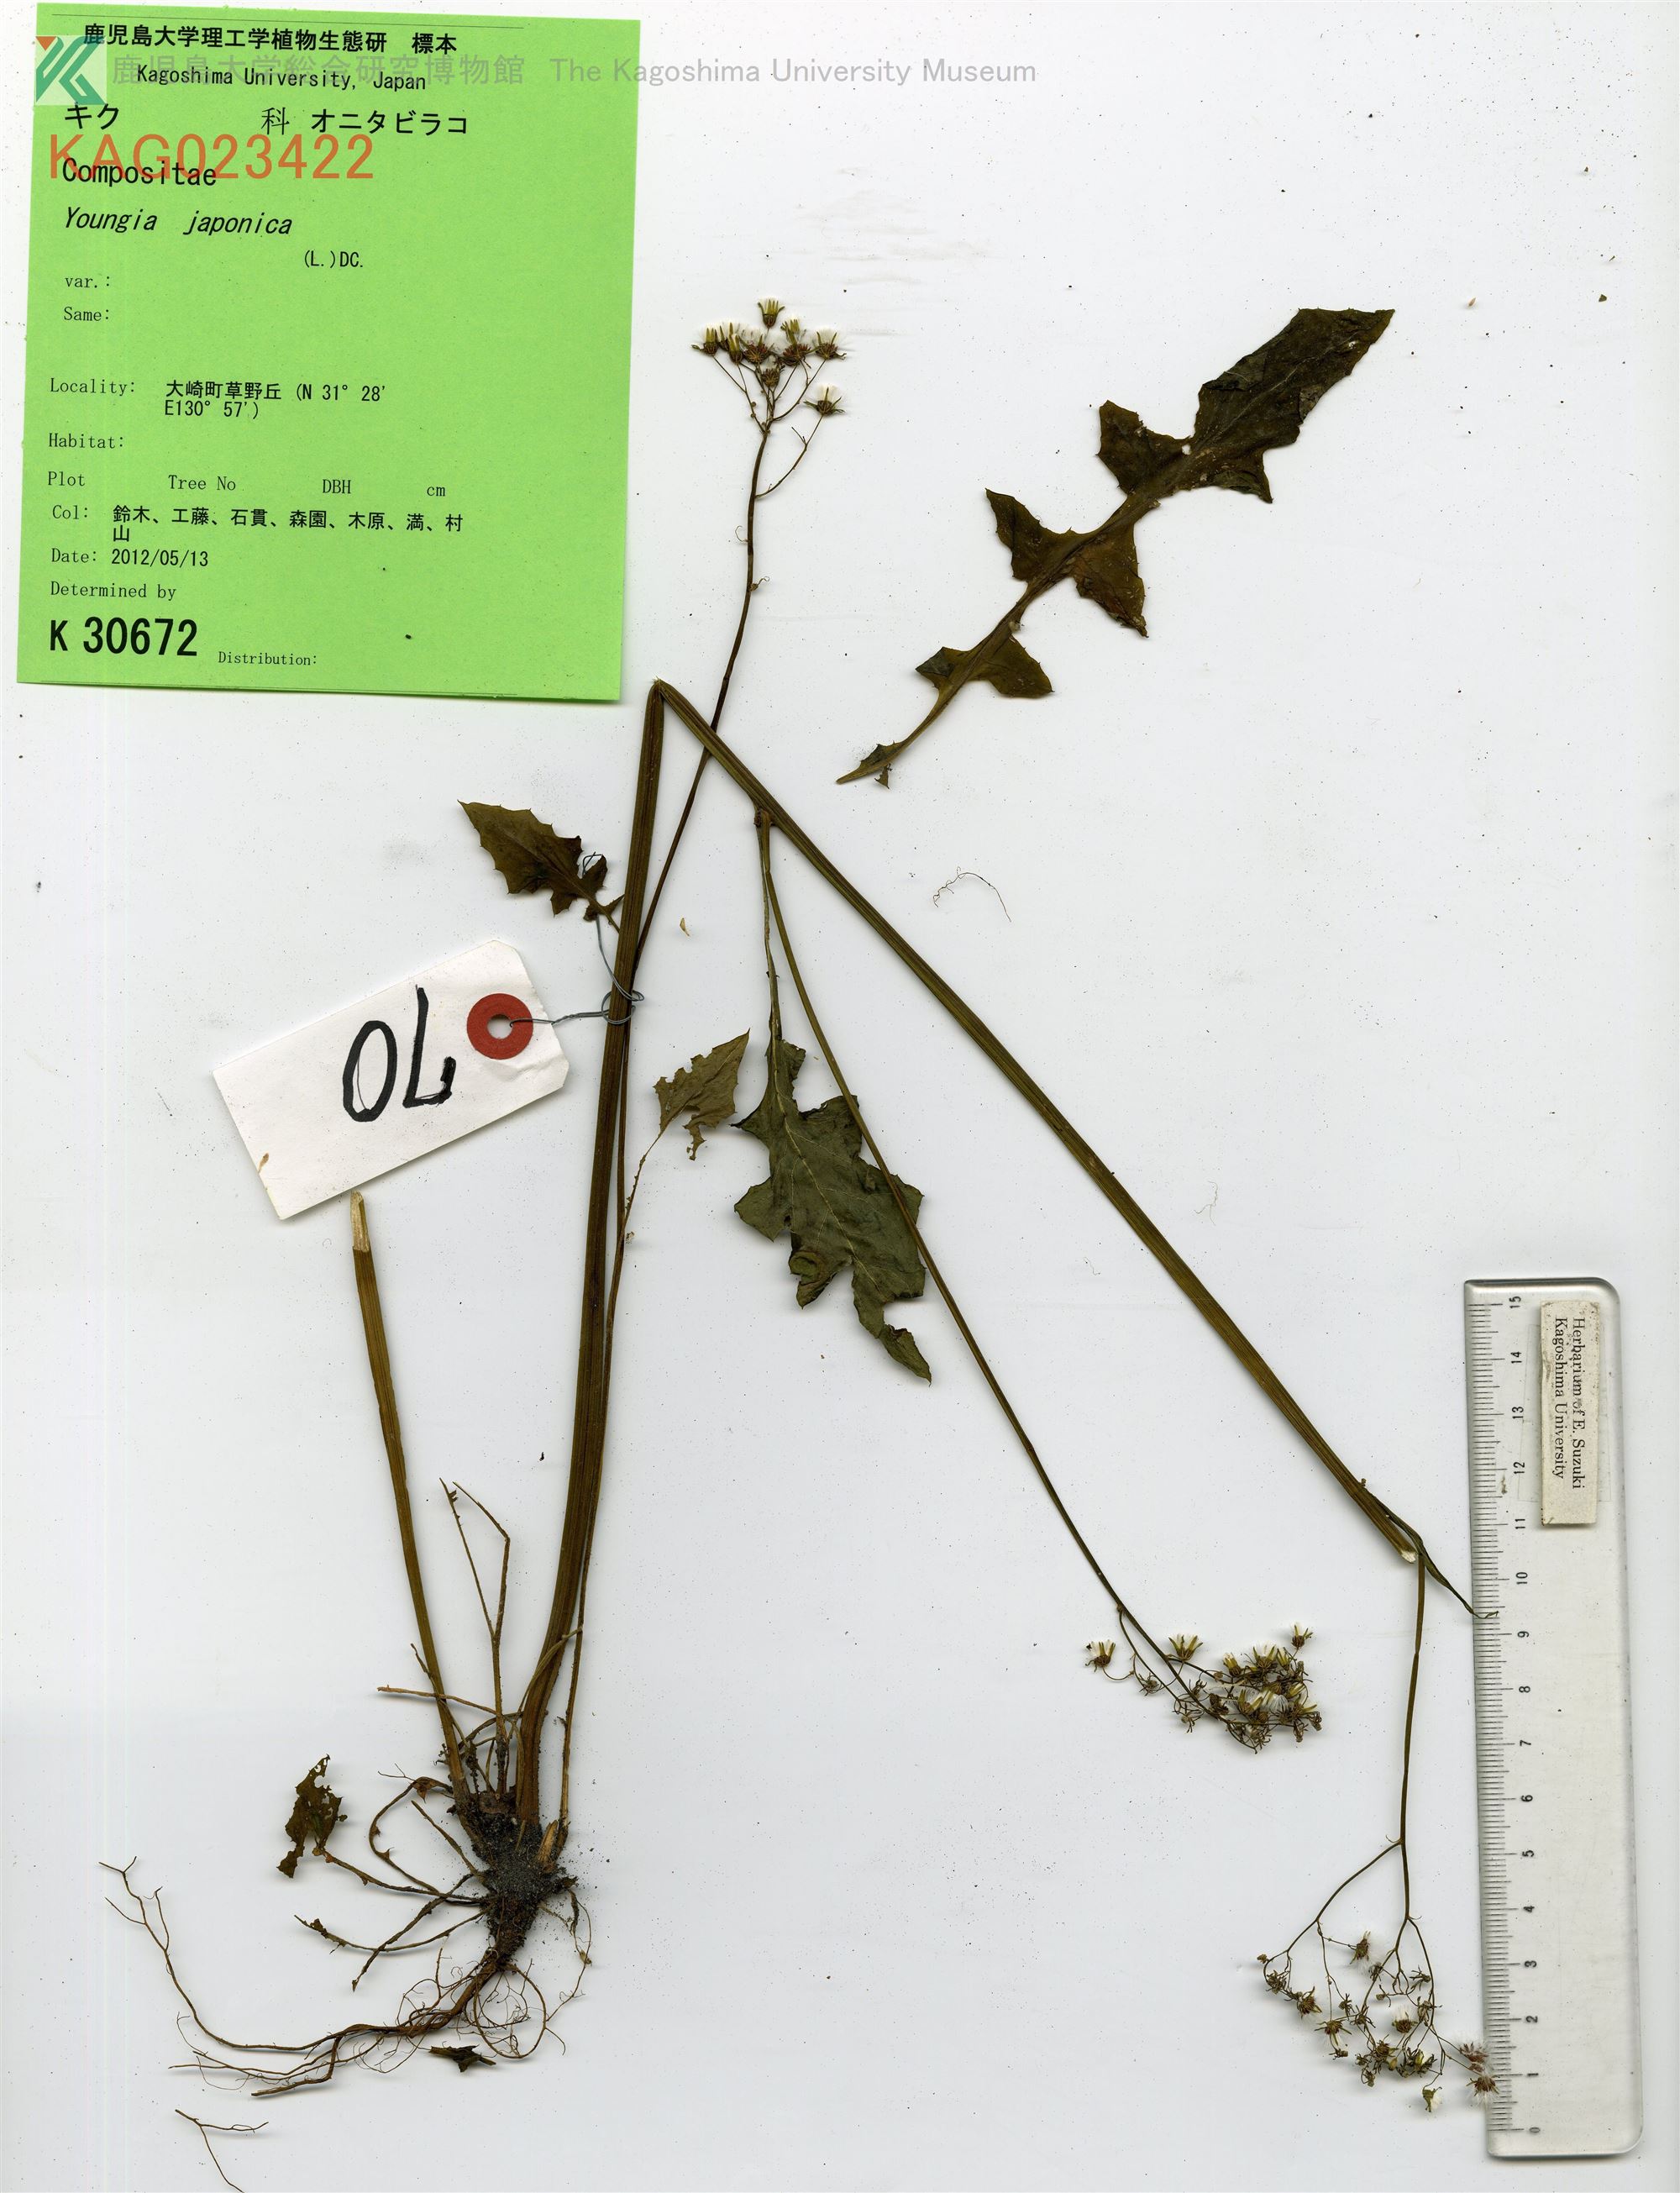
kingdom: Plantae
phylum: Tracheophyta
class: Magnoliopsida
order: Asterales
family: Asteraceae
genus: Youngia
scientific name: Youngia japonica
